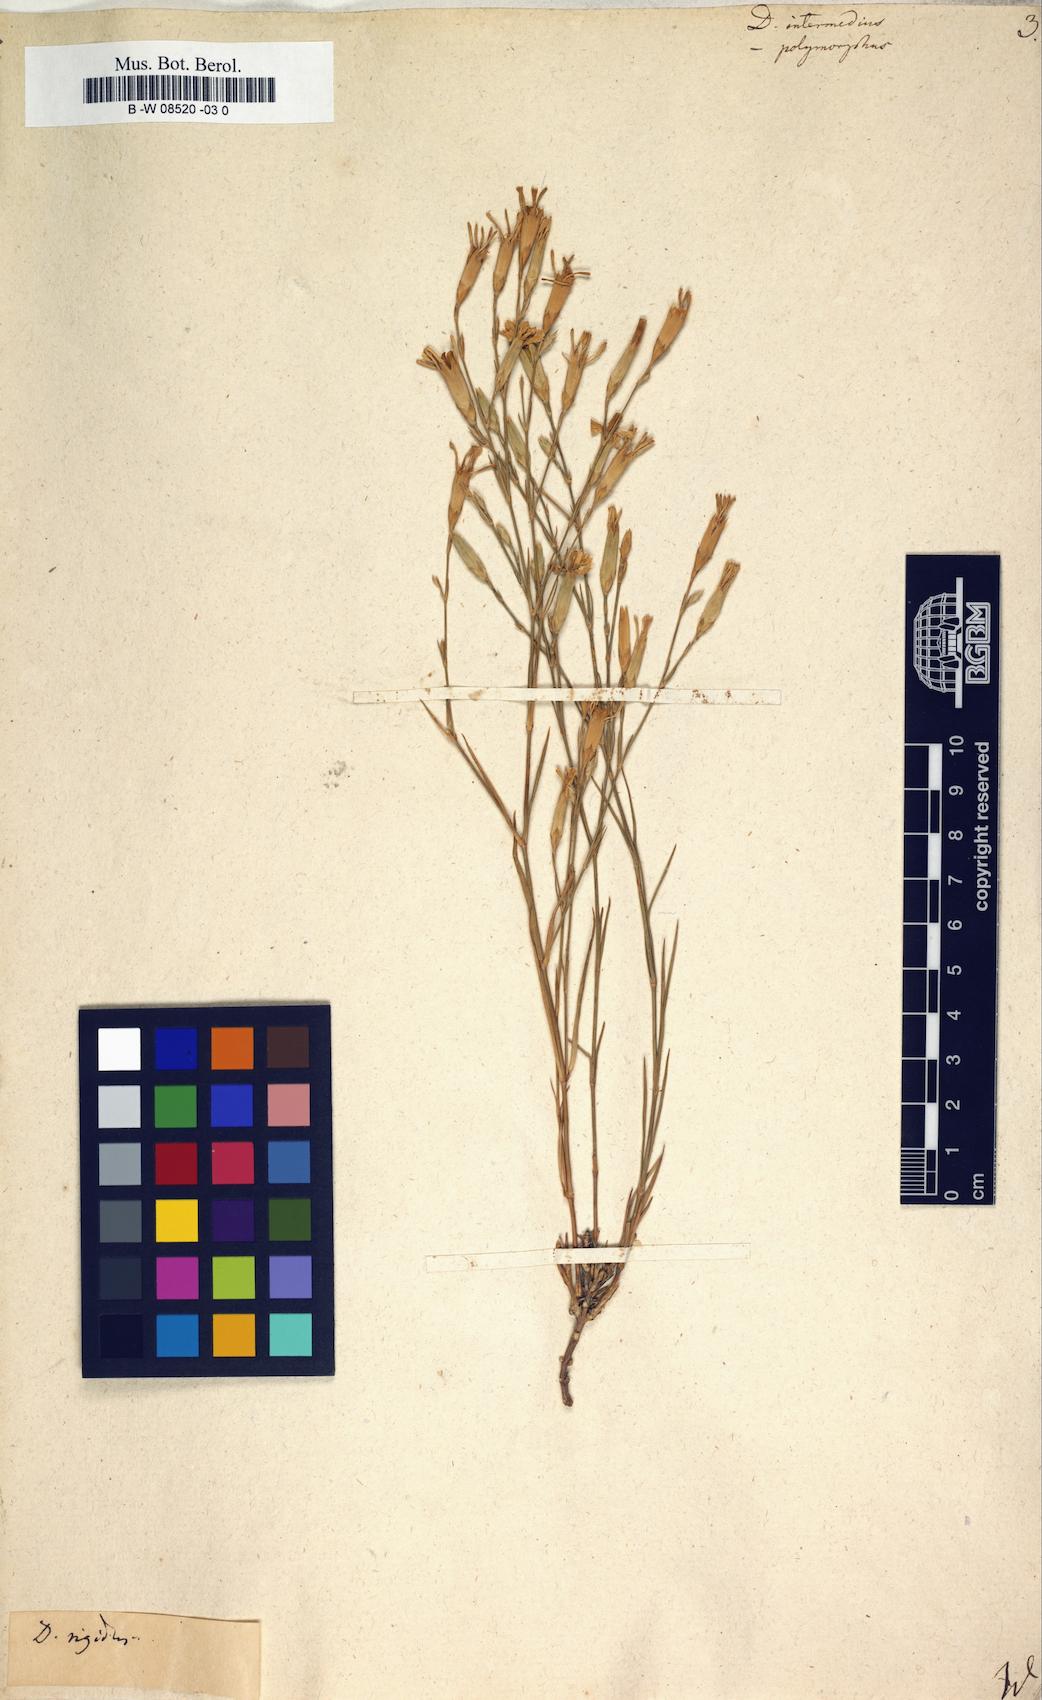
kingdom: Plantae
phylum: Tracheophyta
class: Magnoliopsida
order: Caryophyllales
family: Caryophyllaceae
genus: Dianthus
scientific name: Dianthus
